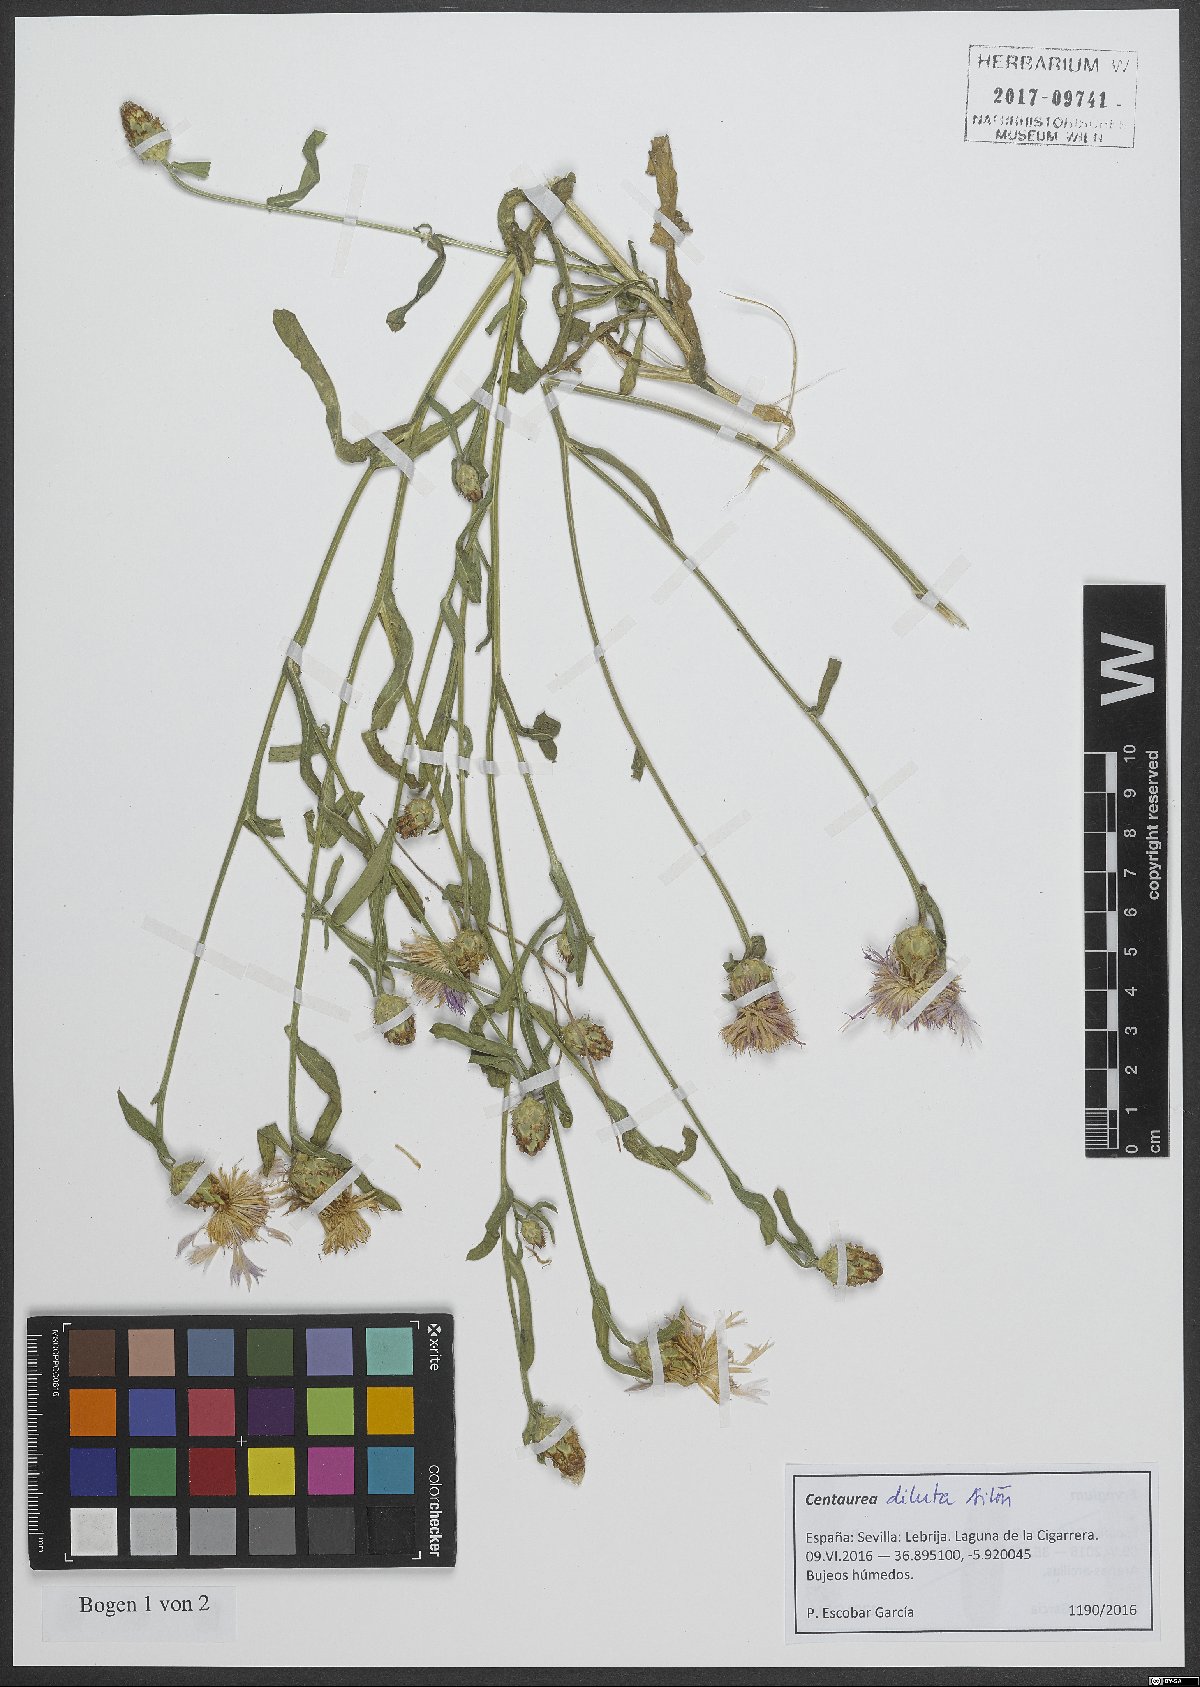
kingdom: Plantae
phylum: Tracheophyta
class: Magnoliopsida
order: Asterales
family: Asteraceae
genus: Centaurea
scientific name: Centaurea diluta
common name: Lesser star-thistle
